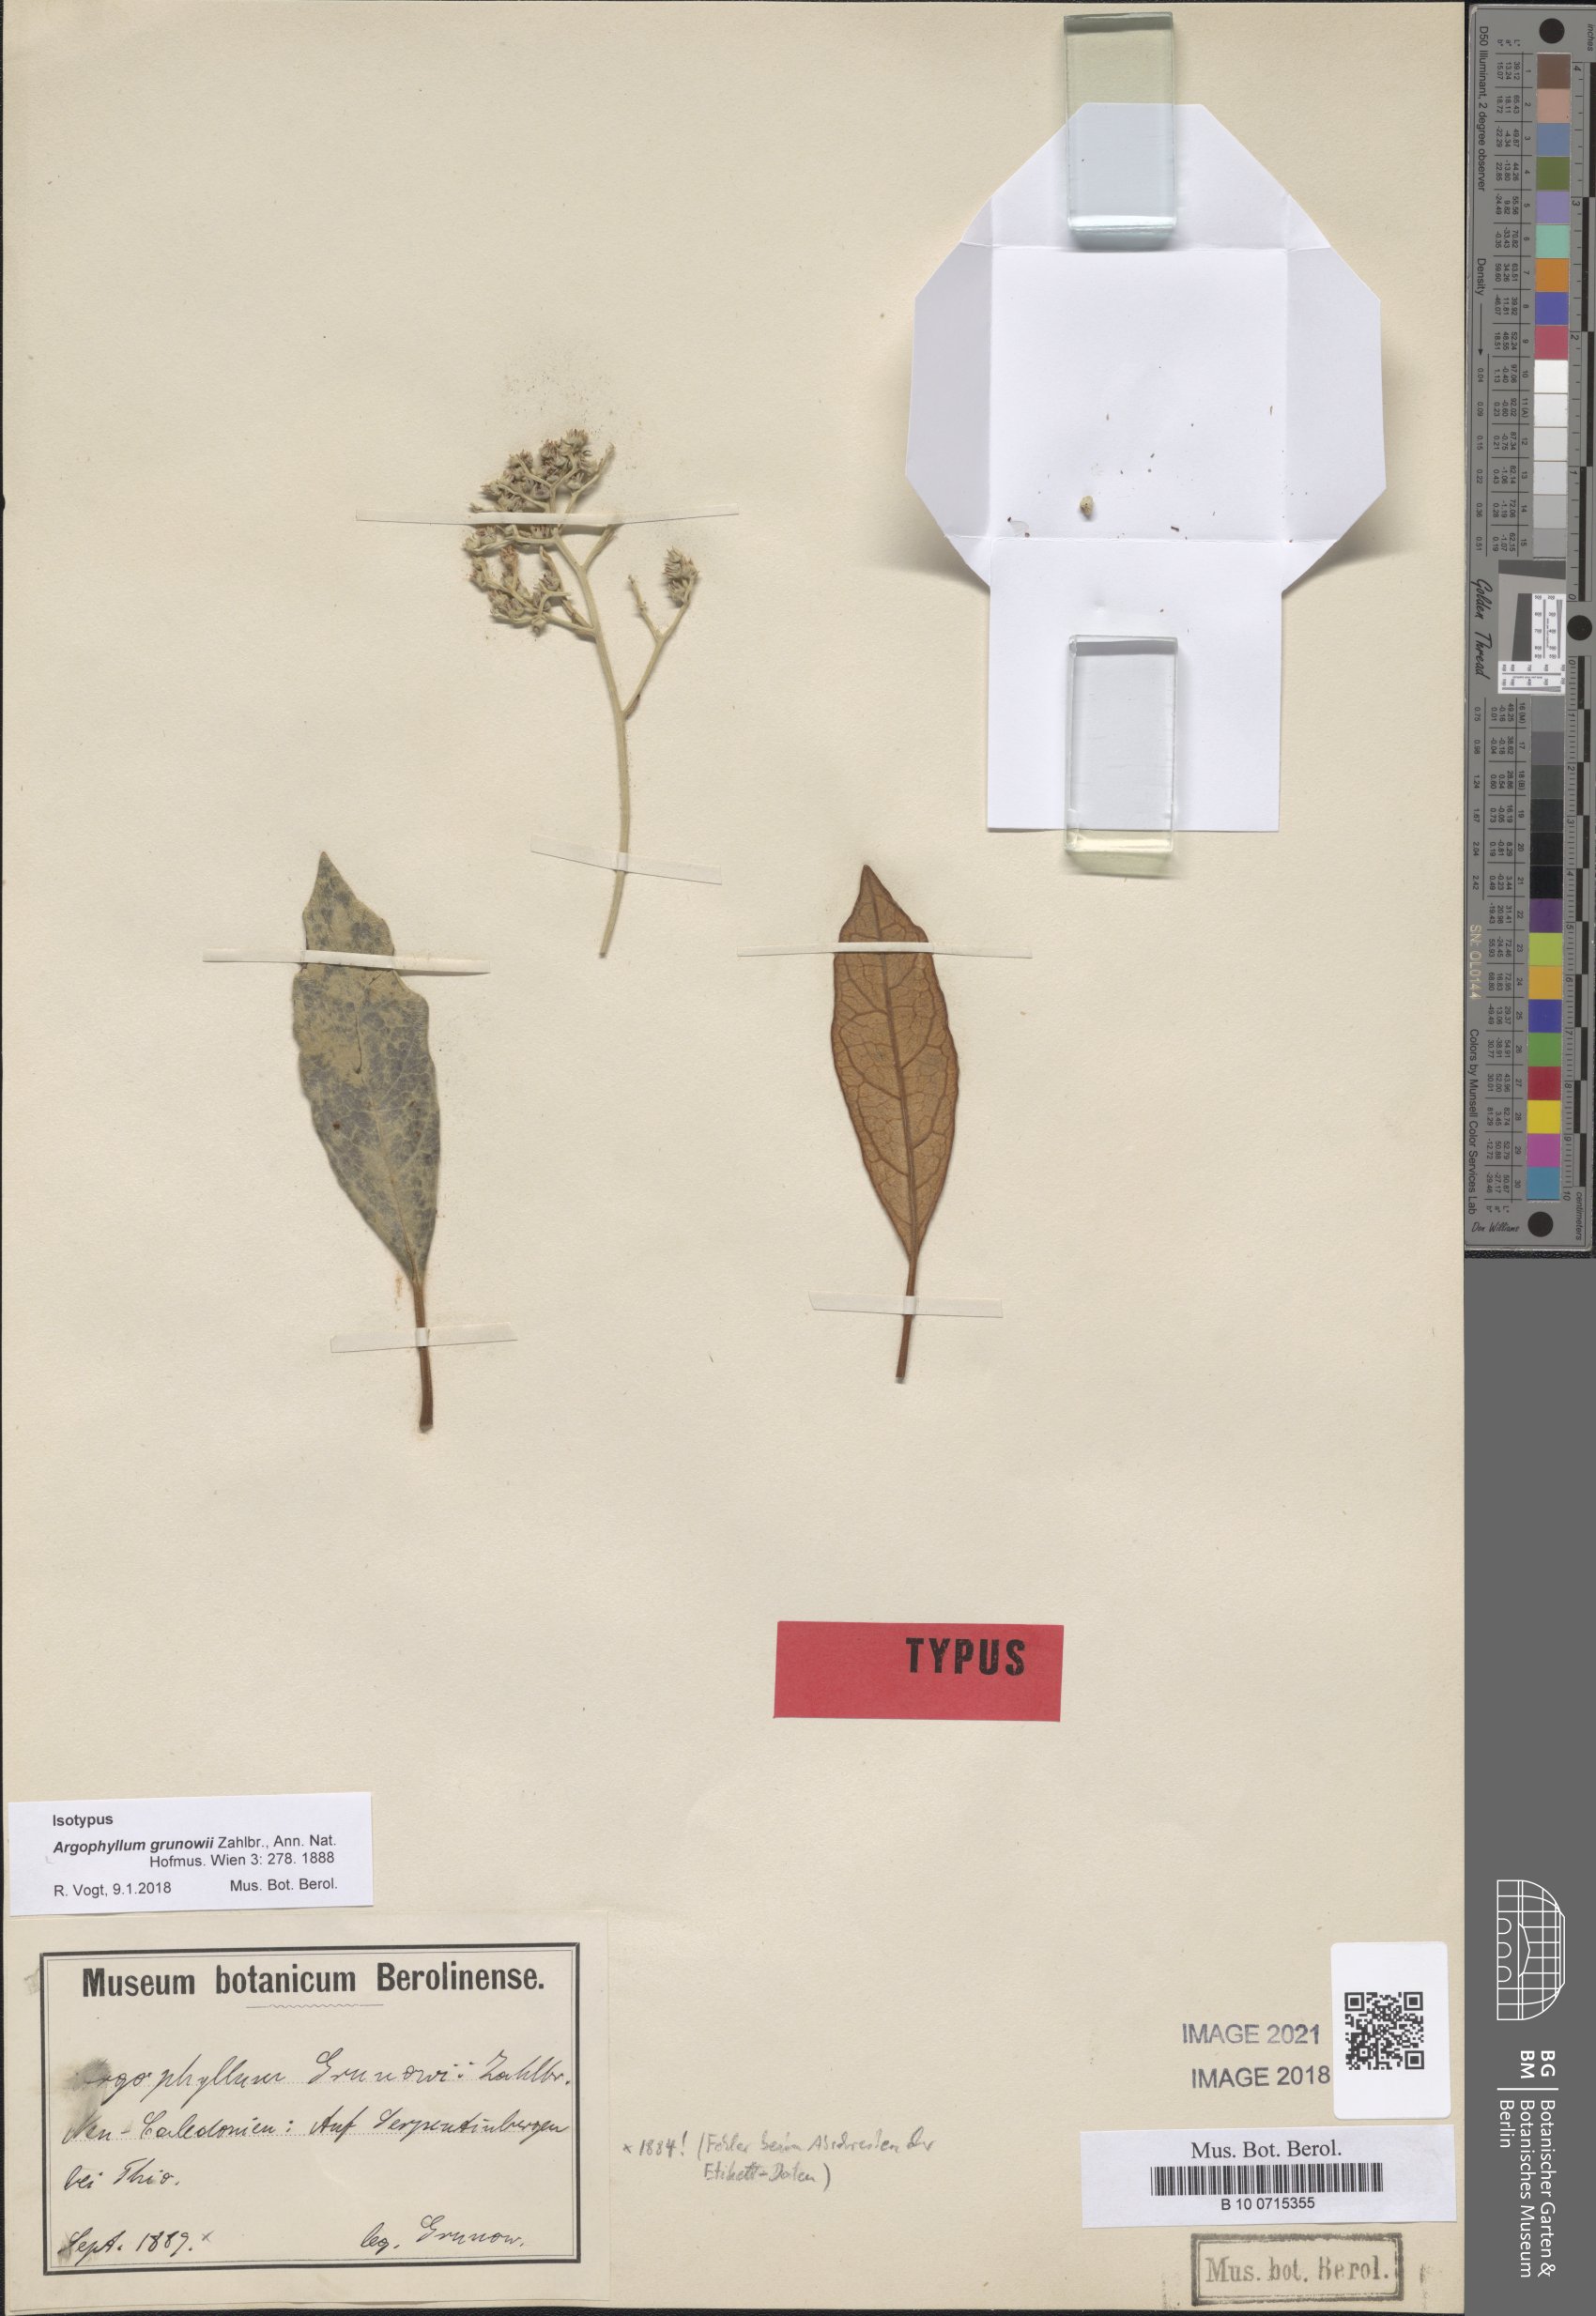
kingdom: Plantae
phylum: Tracheophyta
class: Magnoliopsida
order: Asterales
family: Argophyllaceae
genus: Argophyllum
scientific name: Argophyllum grunowii
